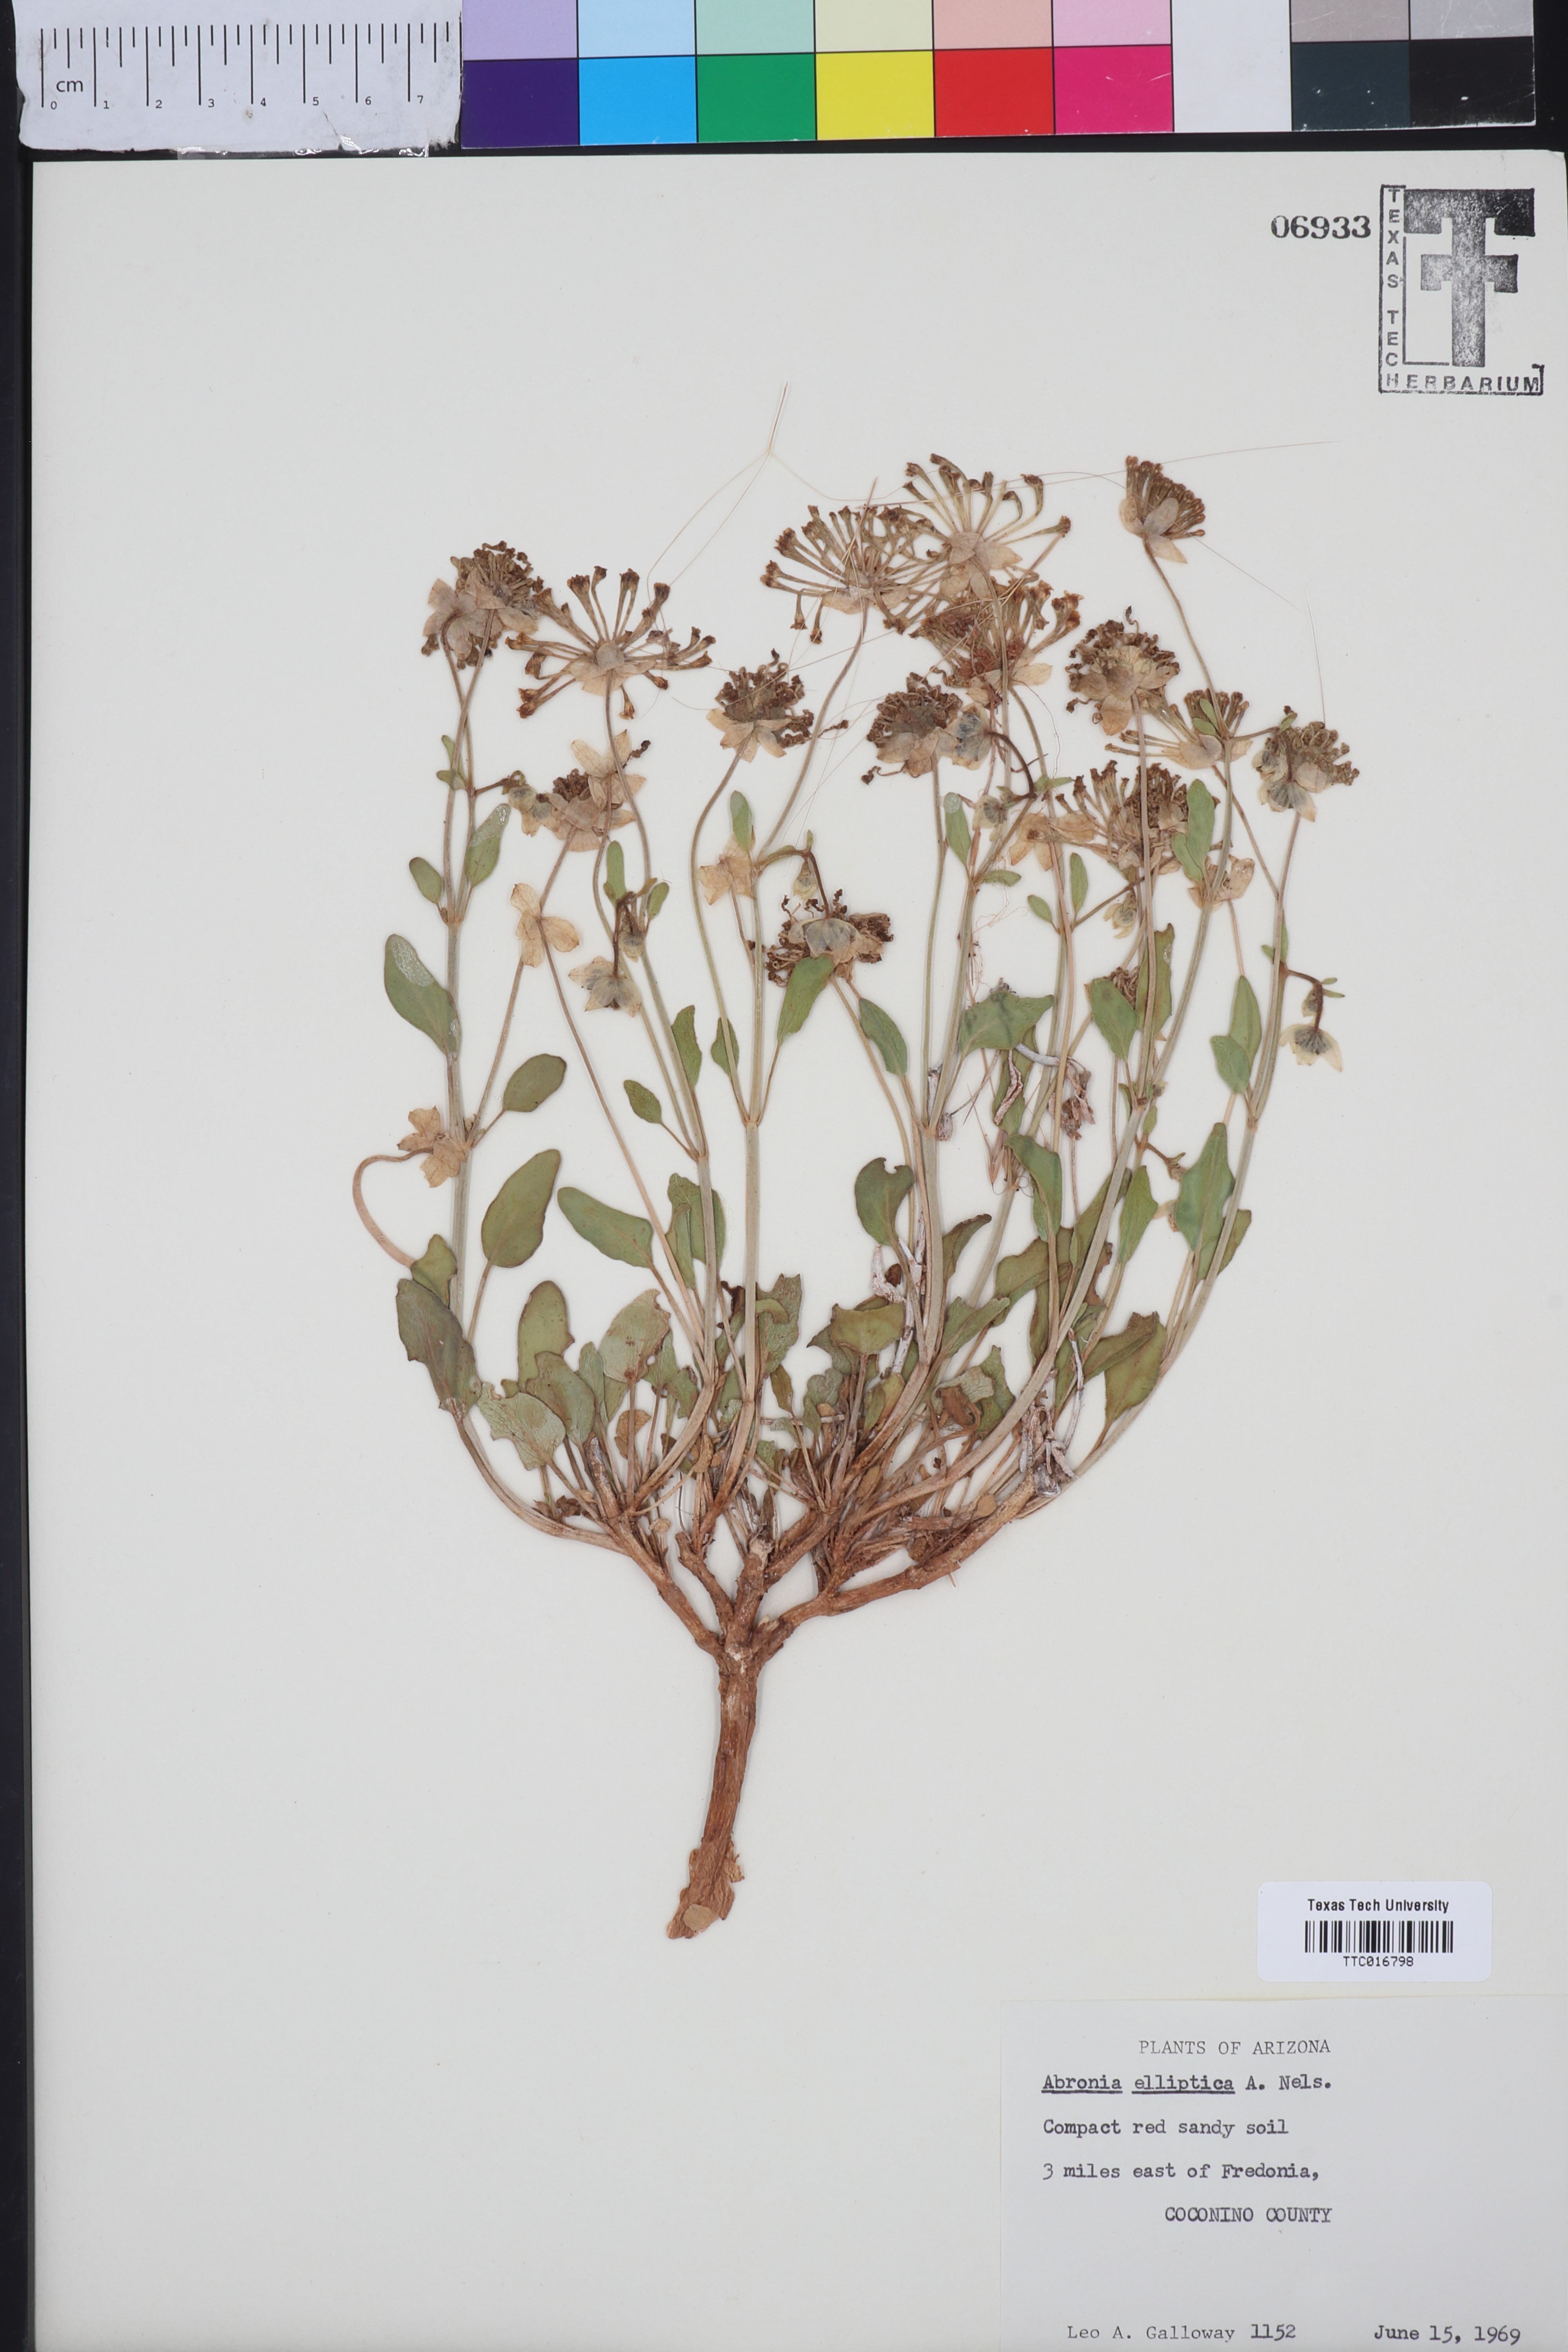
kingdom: Plantae
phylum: Tracheophyta
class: Magnoliopsida
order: Caryophyllales
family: Nyctaginaceae
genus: Abronia
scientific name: Abronia elliptica
